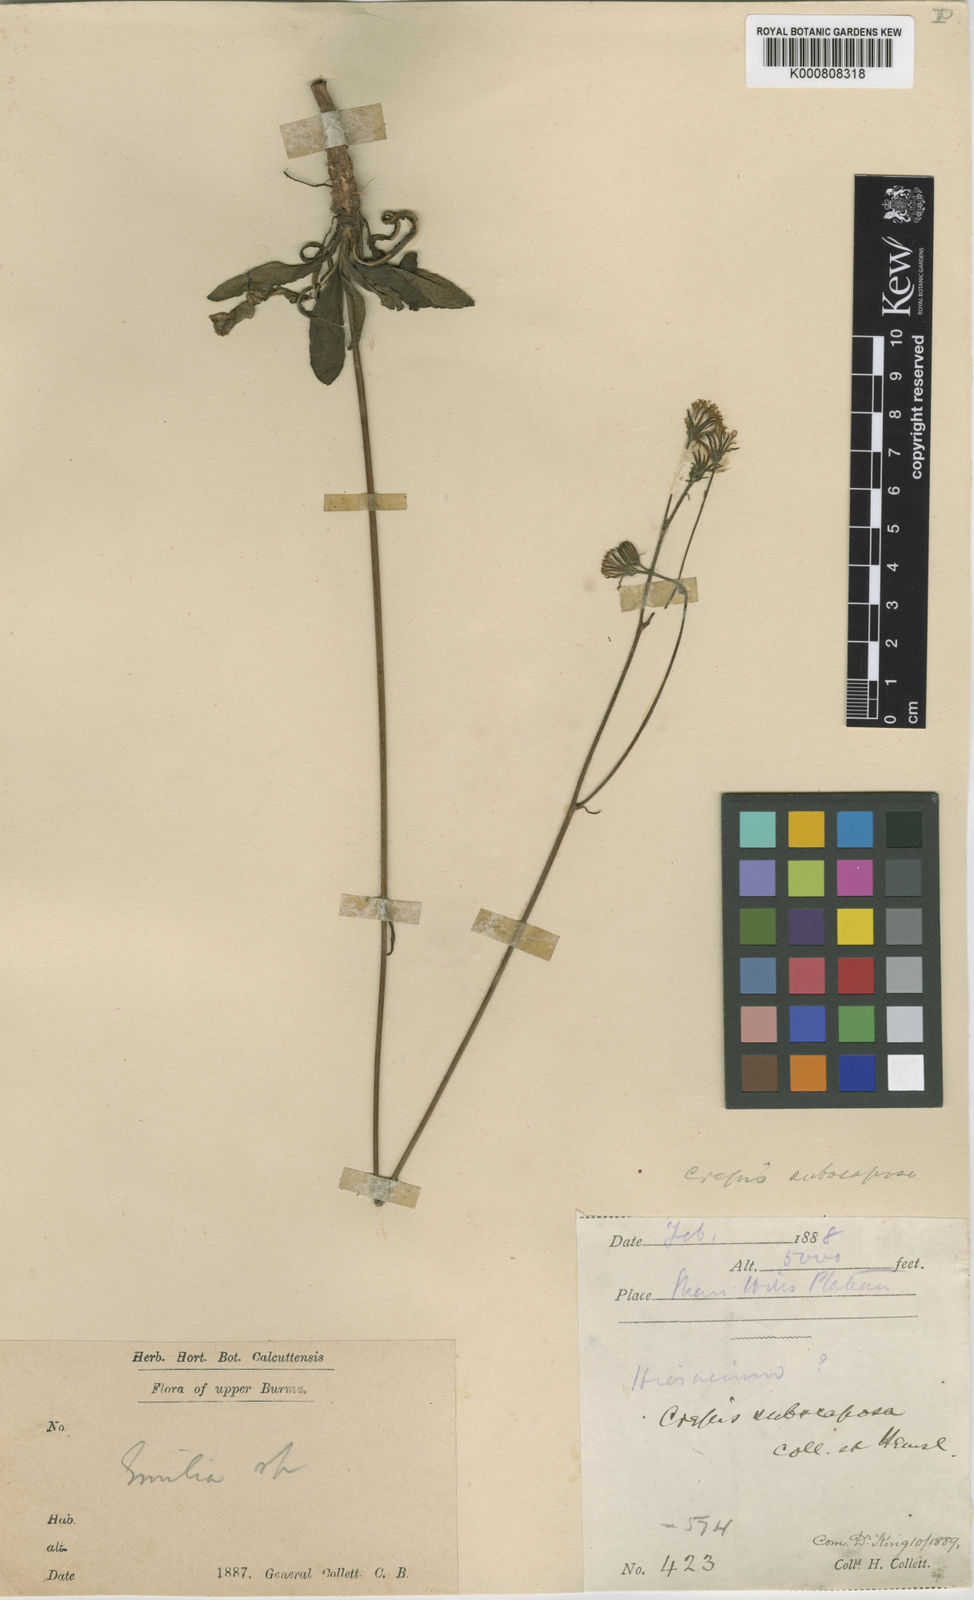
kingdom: Plantae
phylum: Tracheophyta
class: Magnoliopsida
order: Asterales
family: Asteraceae
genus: Crepis
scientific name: Crepis subscaposa
